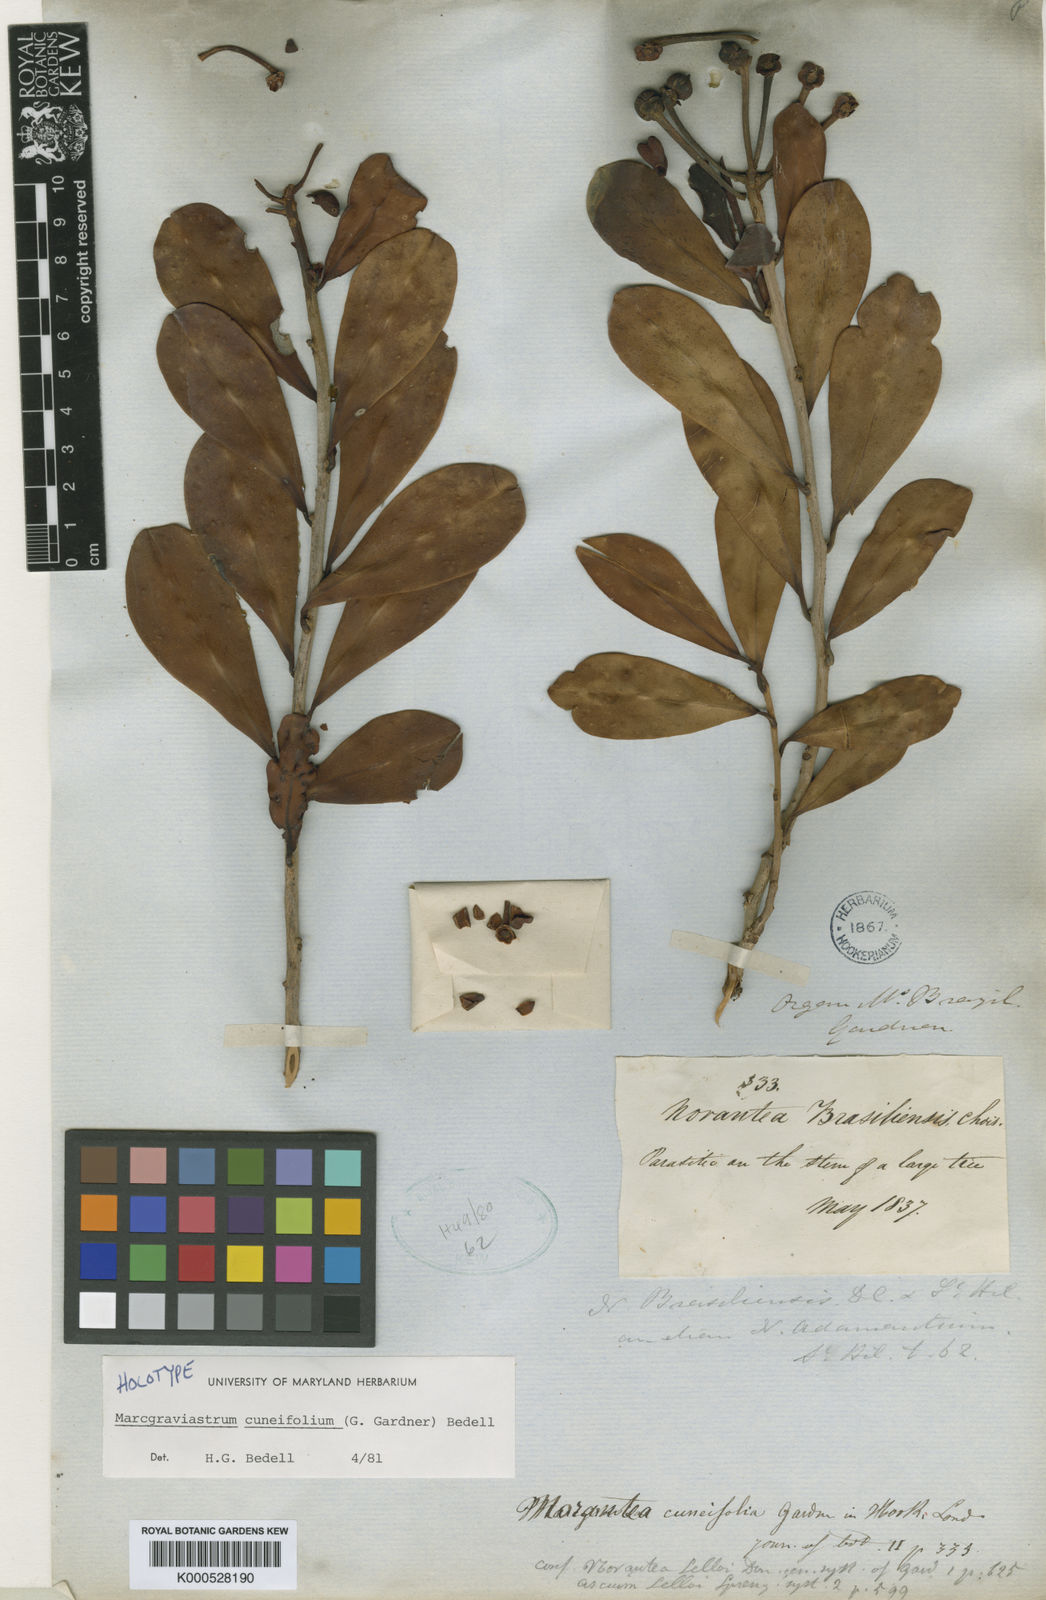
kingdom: Plantae
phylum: Tracheophyta
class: Magnoliopsida
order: Ericales
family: Marcgraviaceae
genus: Marcgraviastrum
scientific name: Marcgraviastrum cuneifolium
